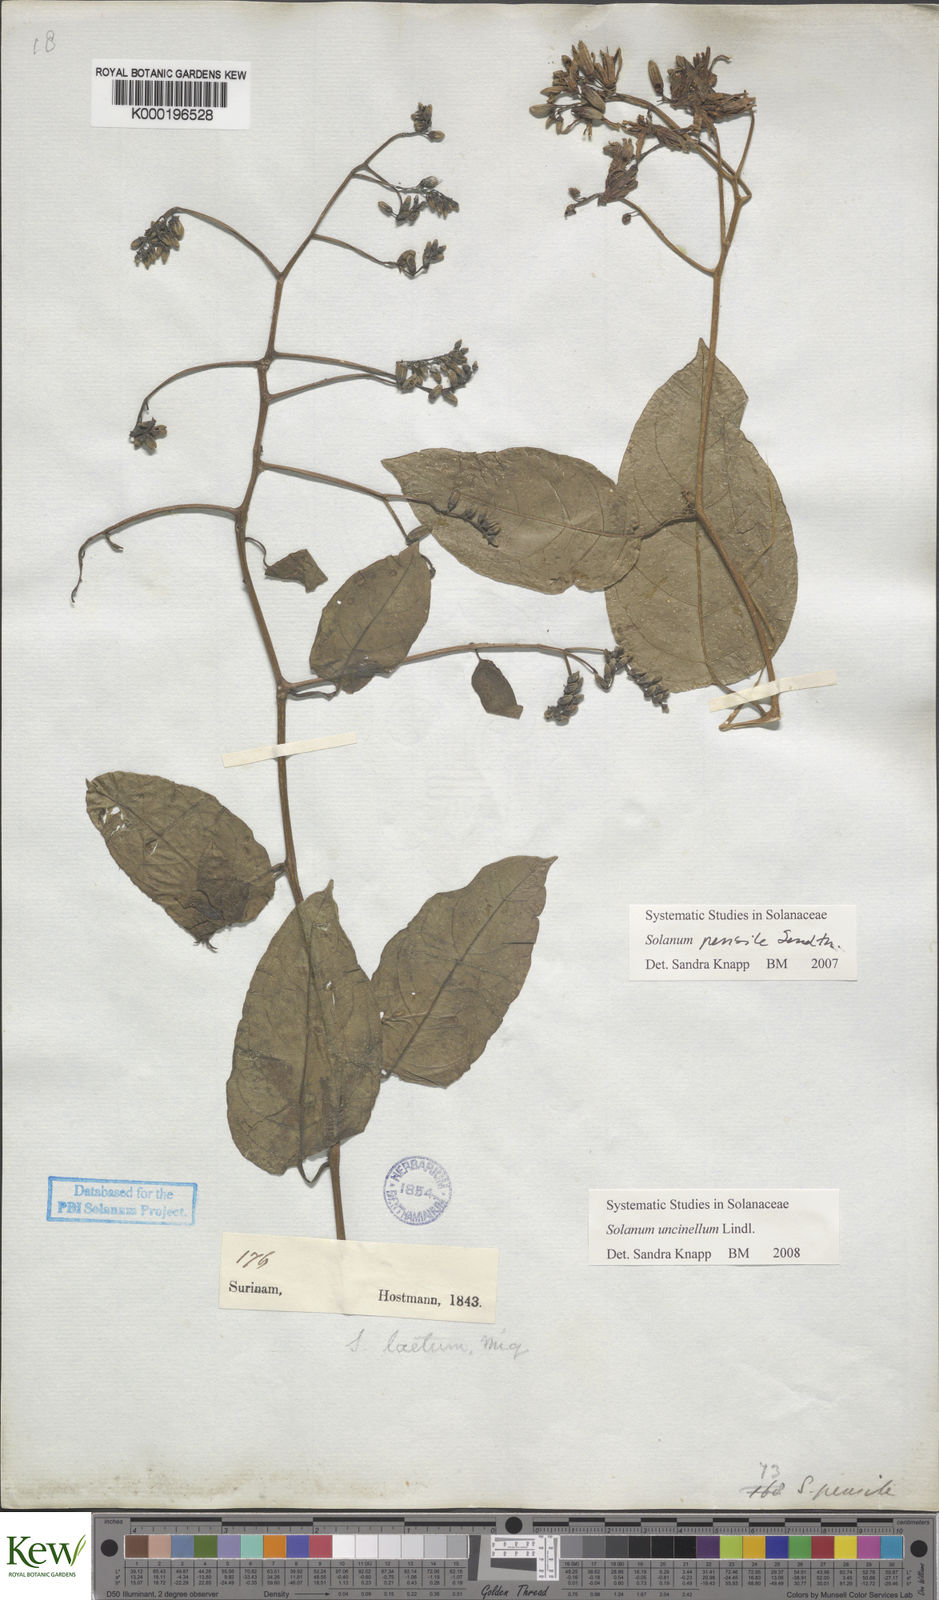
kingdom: Plantae
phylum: Tracheophyta
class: Magnoliopsida
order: Solanales
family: Solanaceae
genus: Solanum
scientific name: Solanum uncinellum
